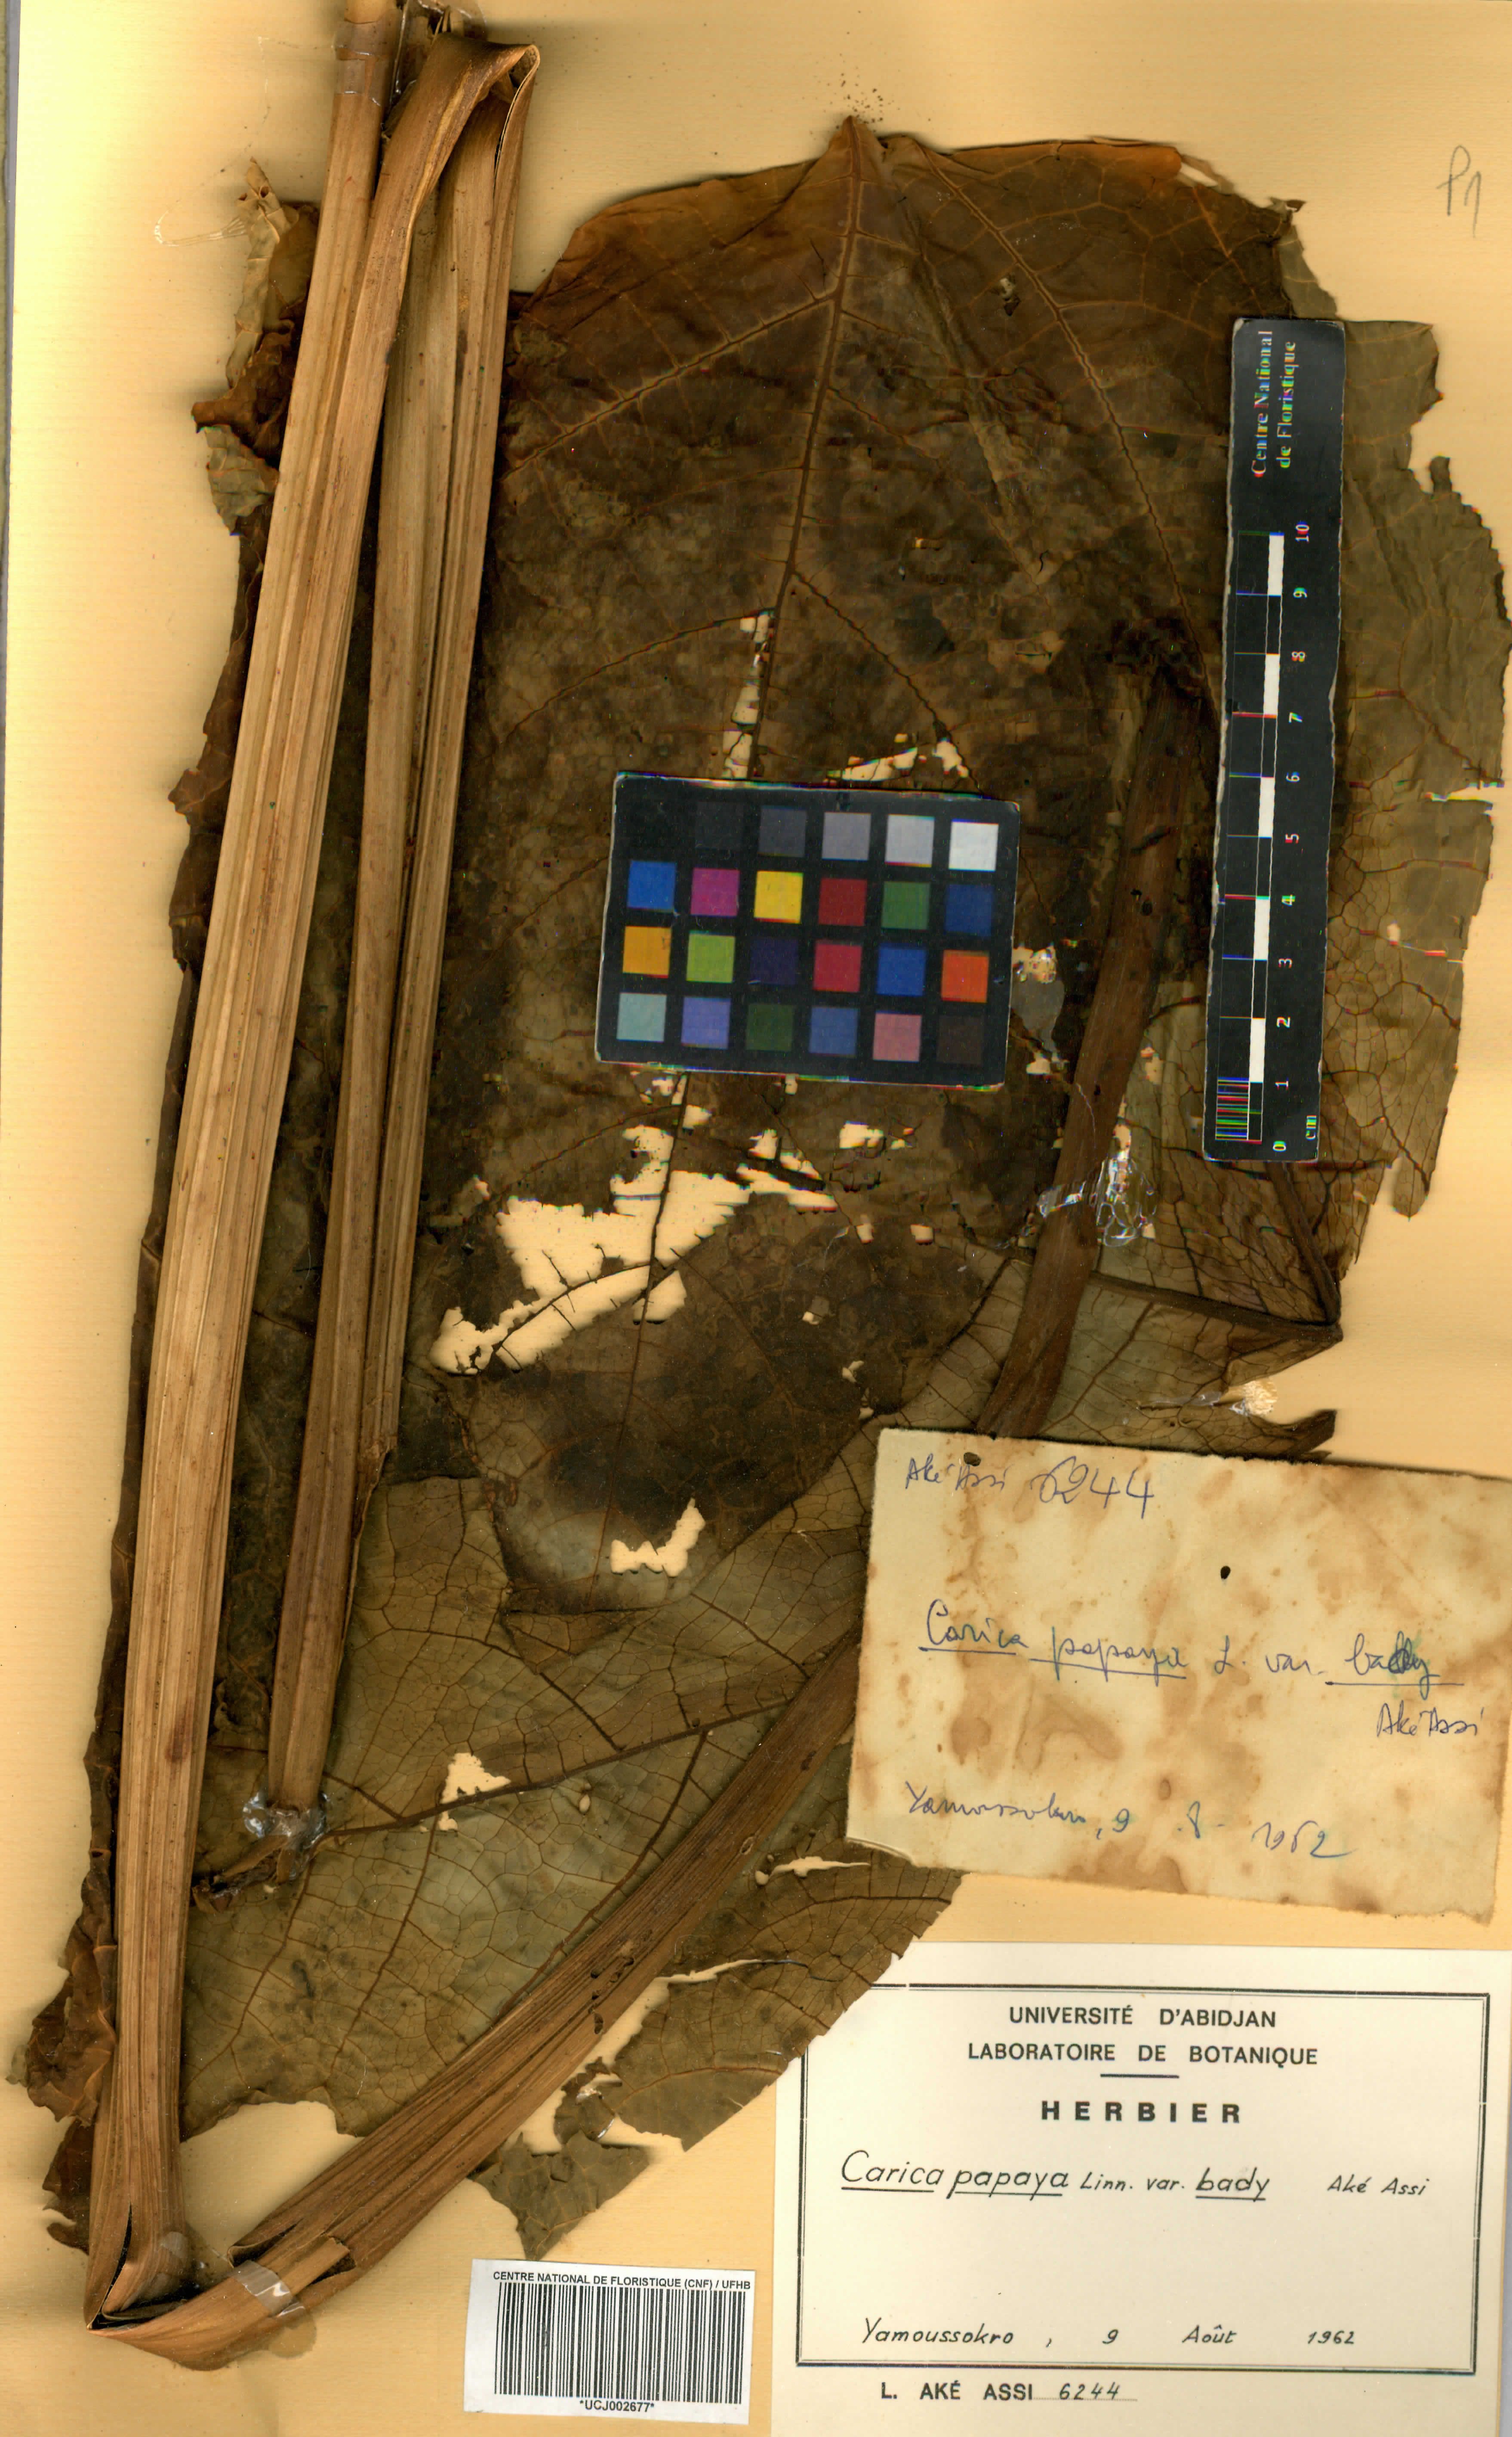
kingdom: Plantae
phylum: Tracheophyta
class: Magnoliopsida
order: Brassicales
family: Caricaceae
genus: Carica
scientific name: Carica papaya
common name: Papaya
